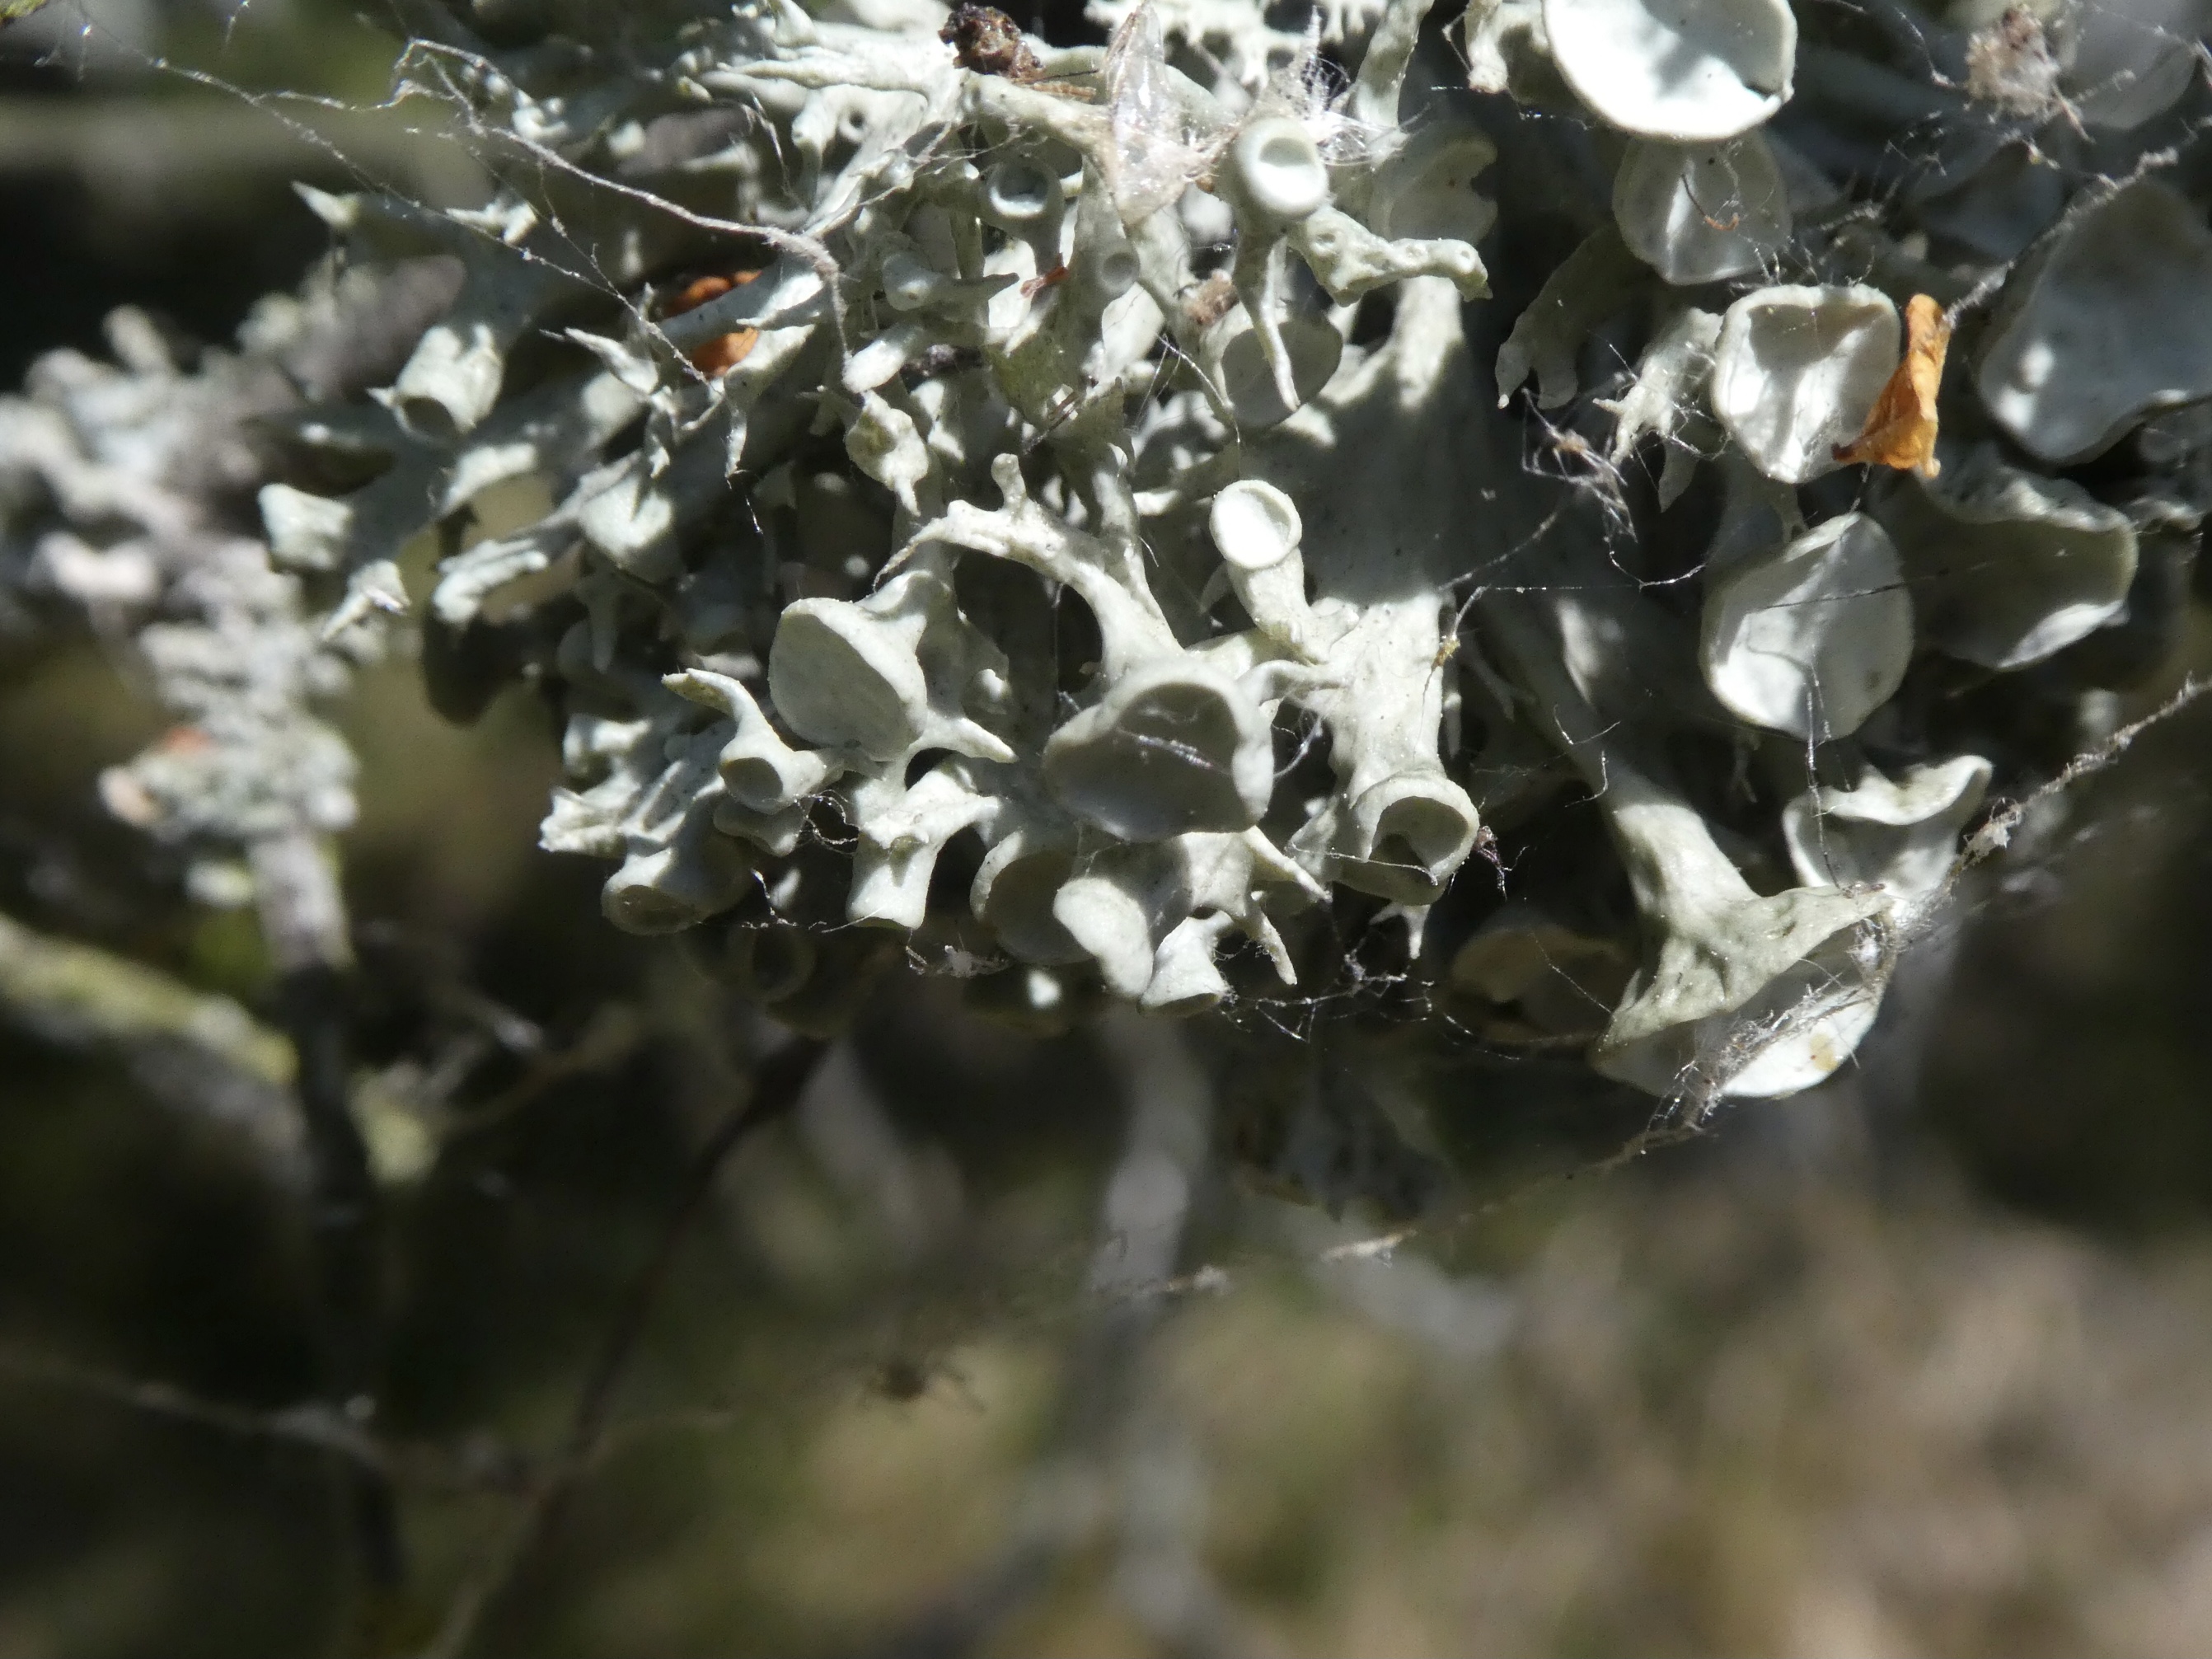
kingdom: Fungi
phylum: Ascomycota
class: Lecanoromycetes
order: Lecanorales
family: Ramalinaceae
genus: Ramalina
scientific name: Ramalina fastigiata
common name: Tue-grenlav
